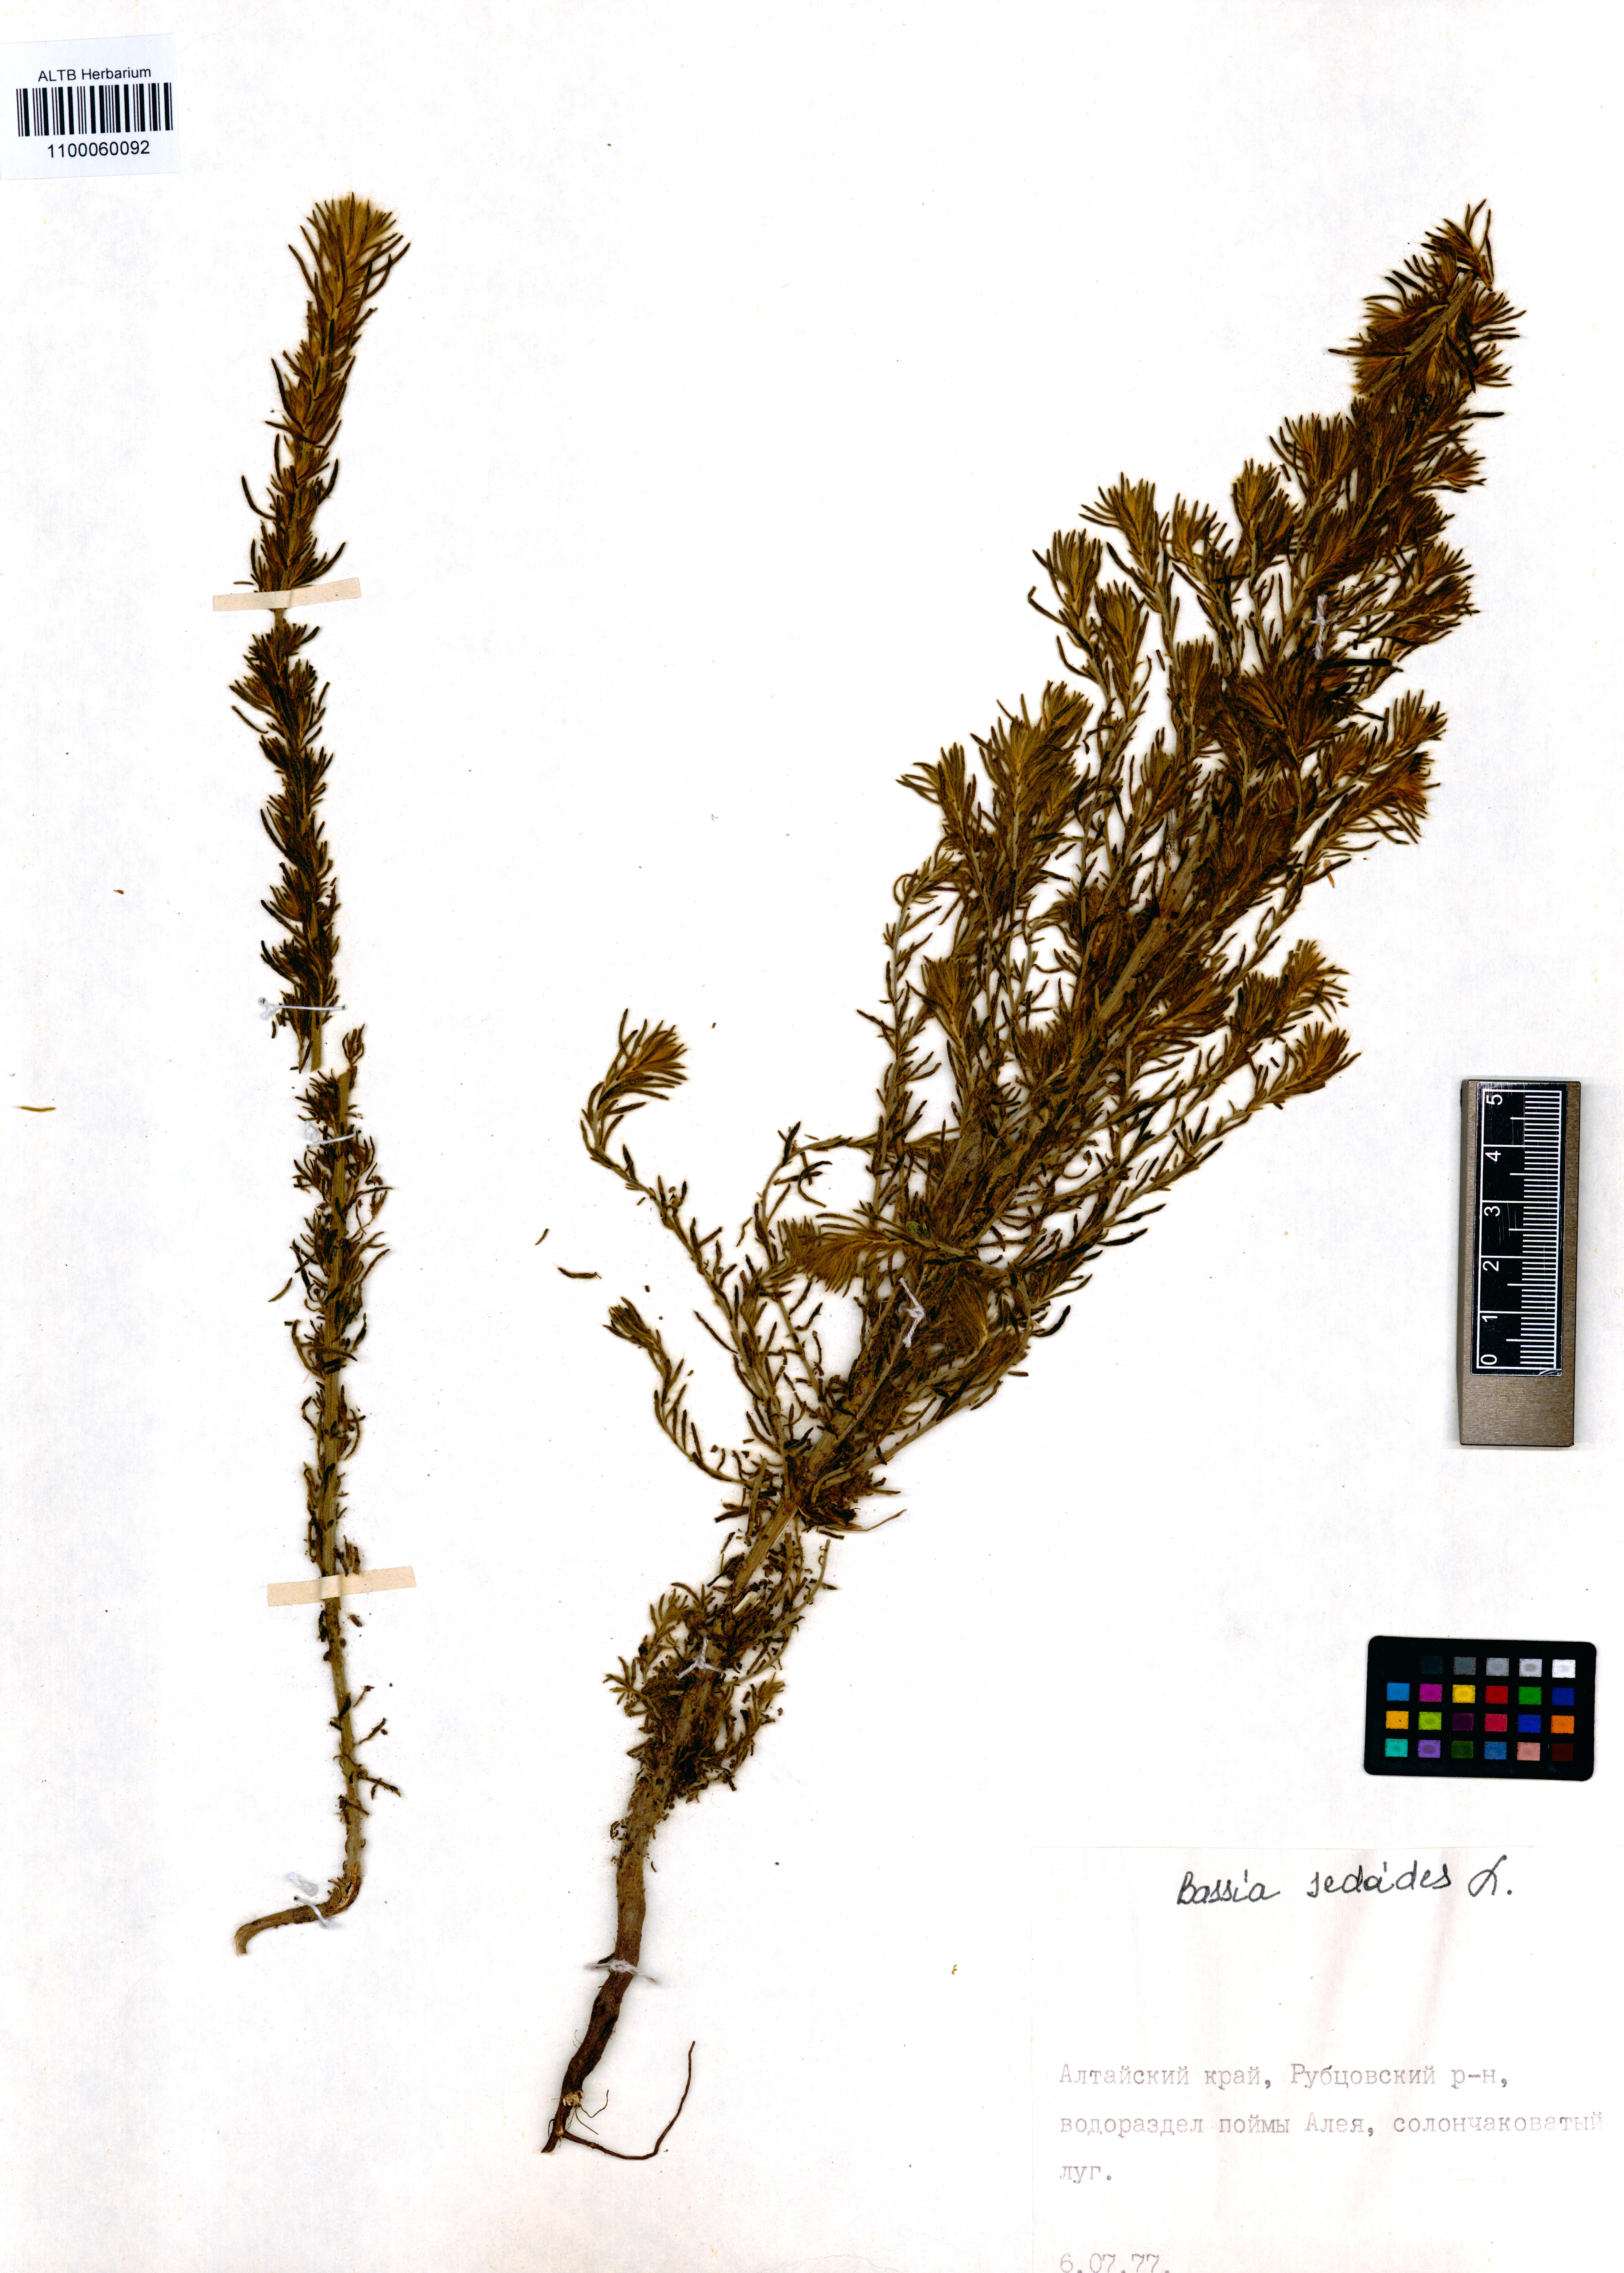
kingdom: Plantae
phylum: Tracheophyta
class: Magnoliopsida
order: Caryophyllales
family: Amaranthaceae
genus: Sedobassia
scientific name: Sedobassia sedoides
